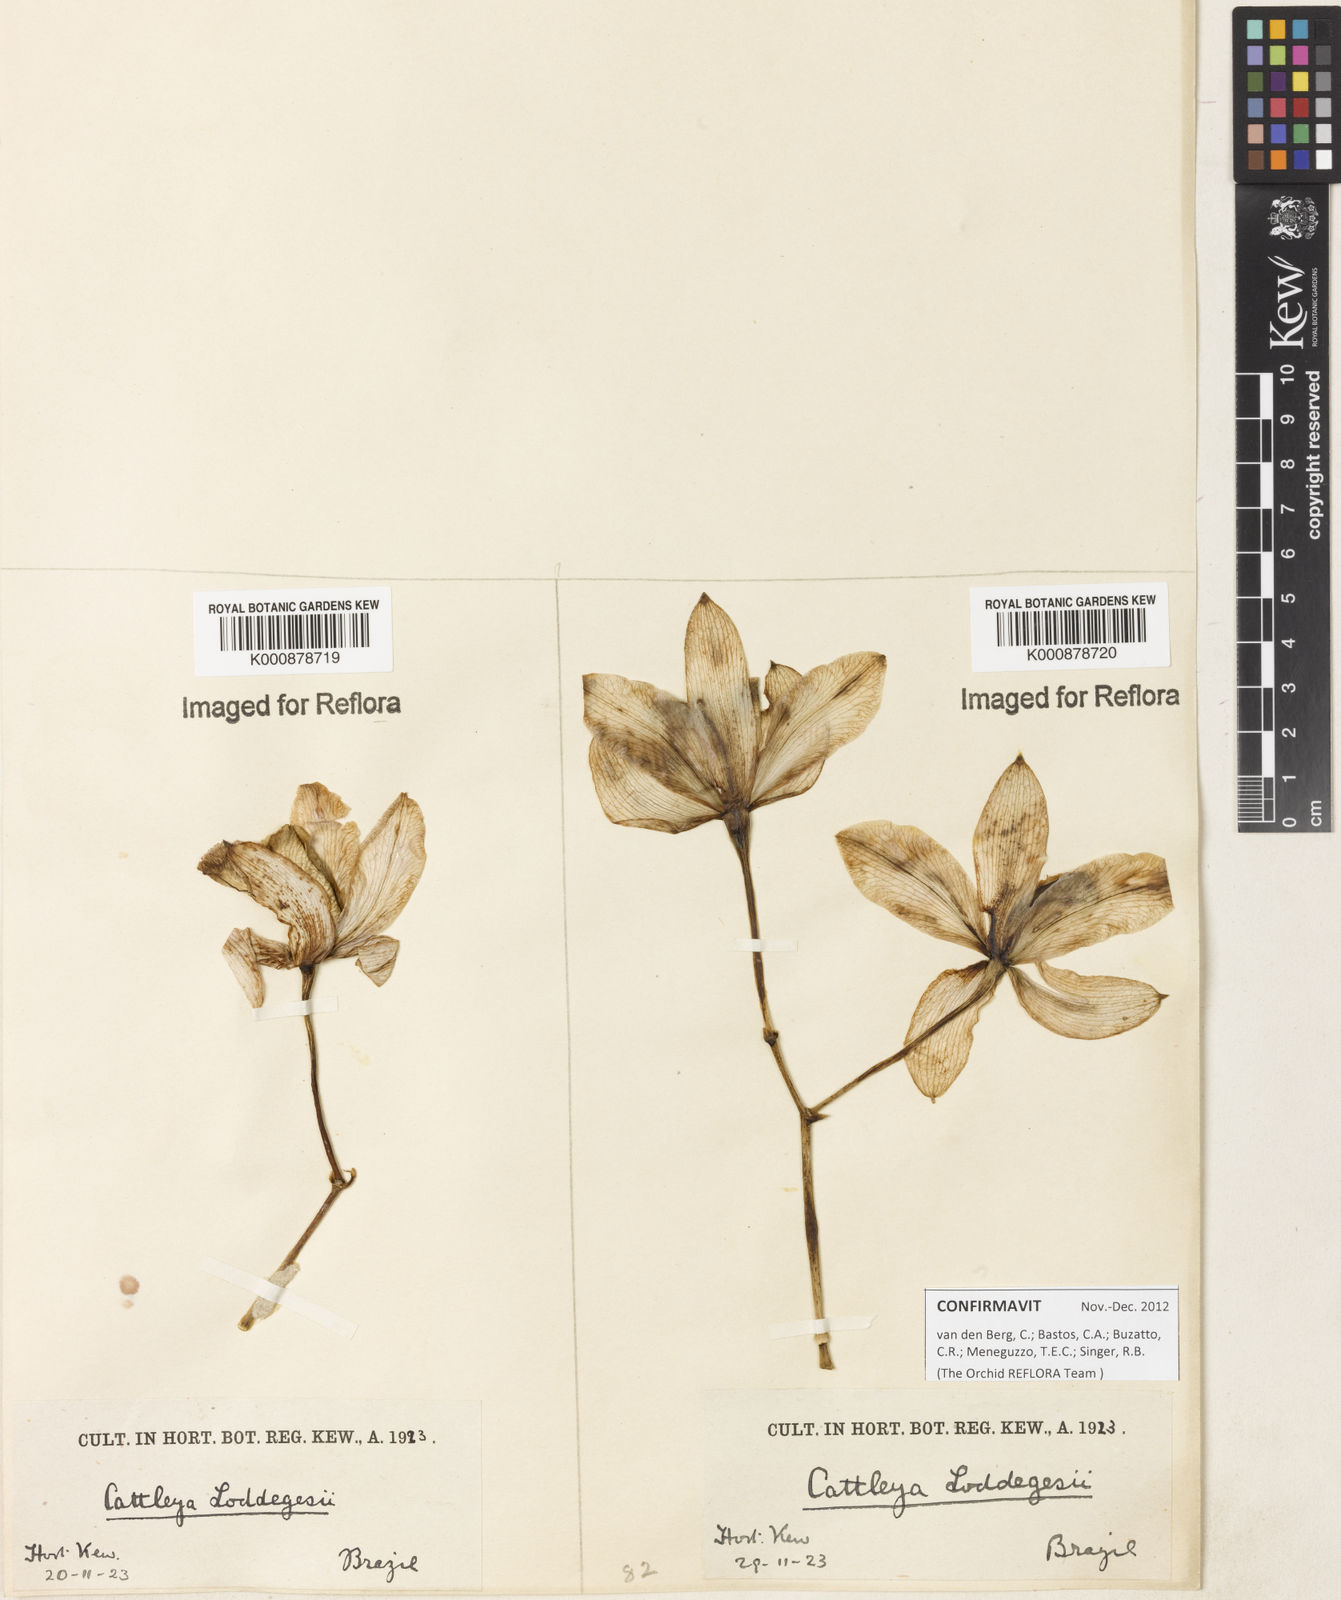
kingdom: Plantae
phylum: Tracheophyta
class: Liliopsida
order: Asparagales
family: Orchidaceae
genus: Cattleya
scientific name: Cattleya loddigesii
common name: Loddiges's cattleya
